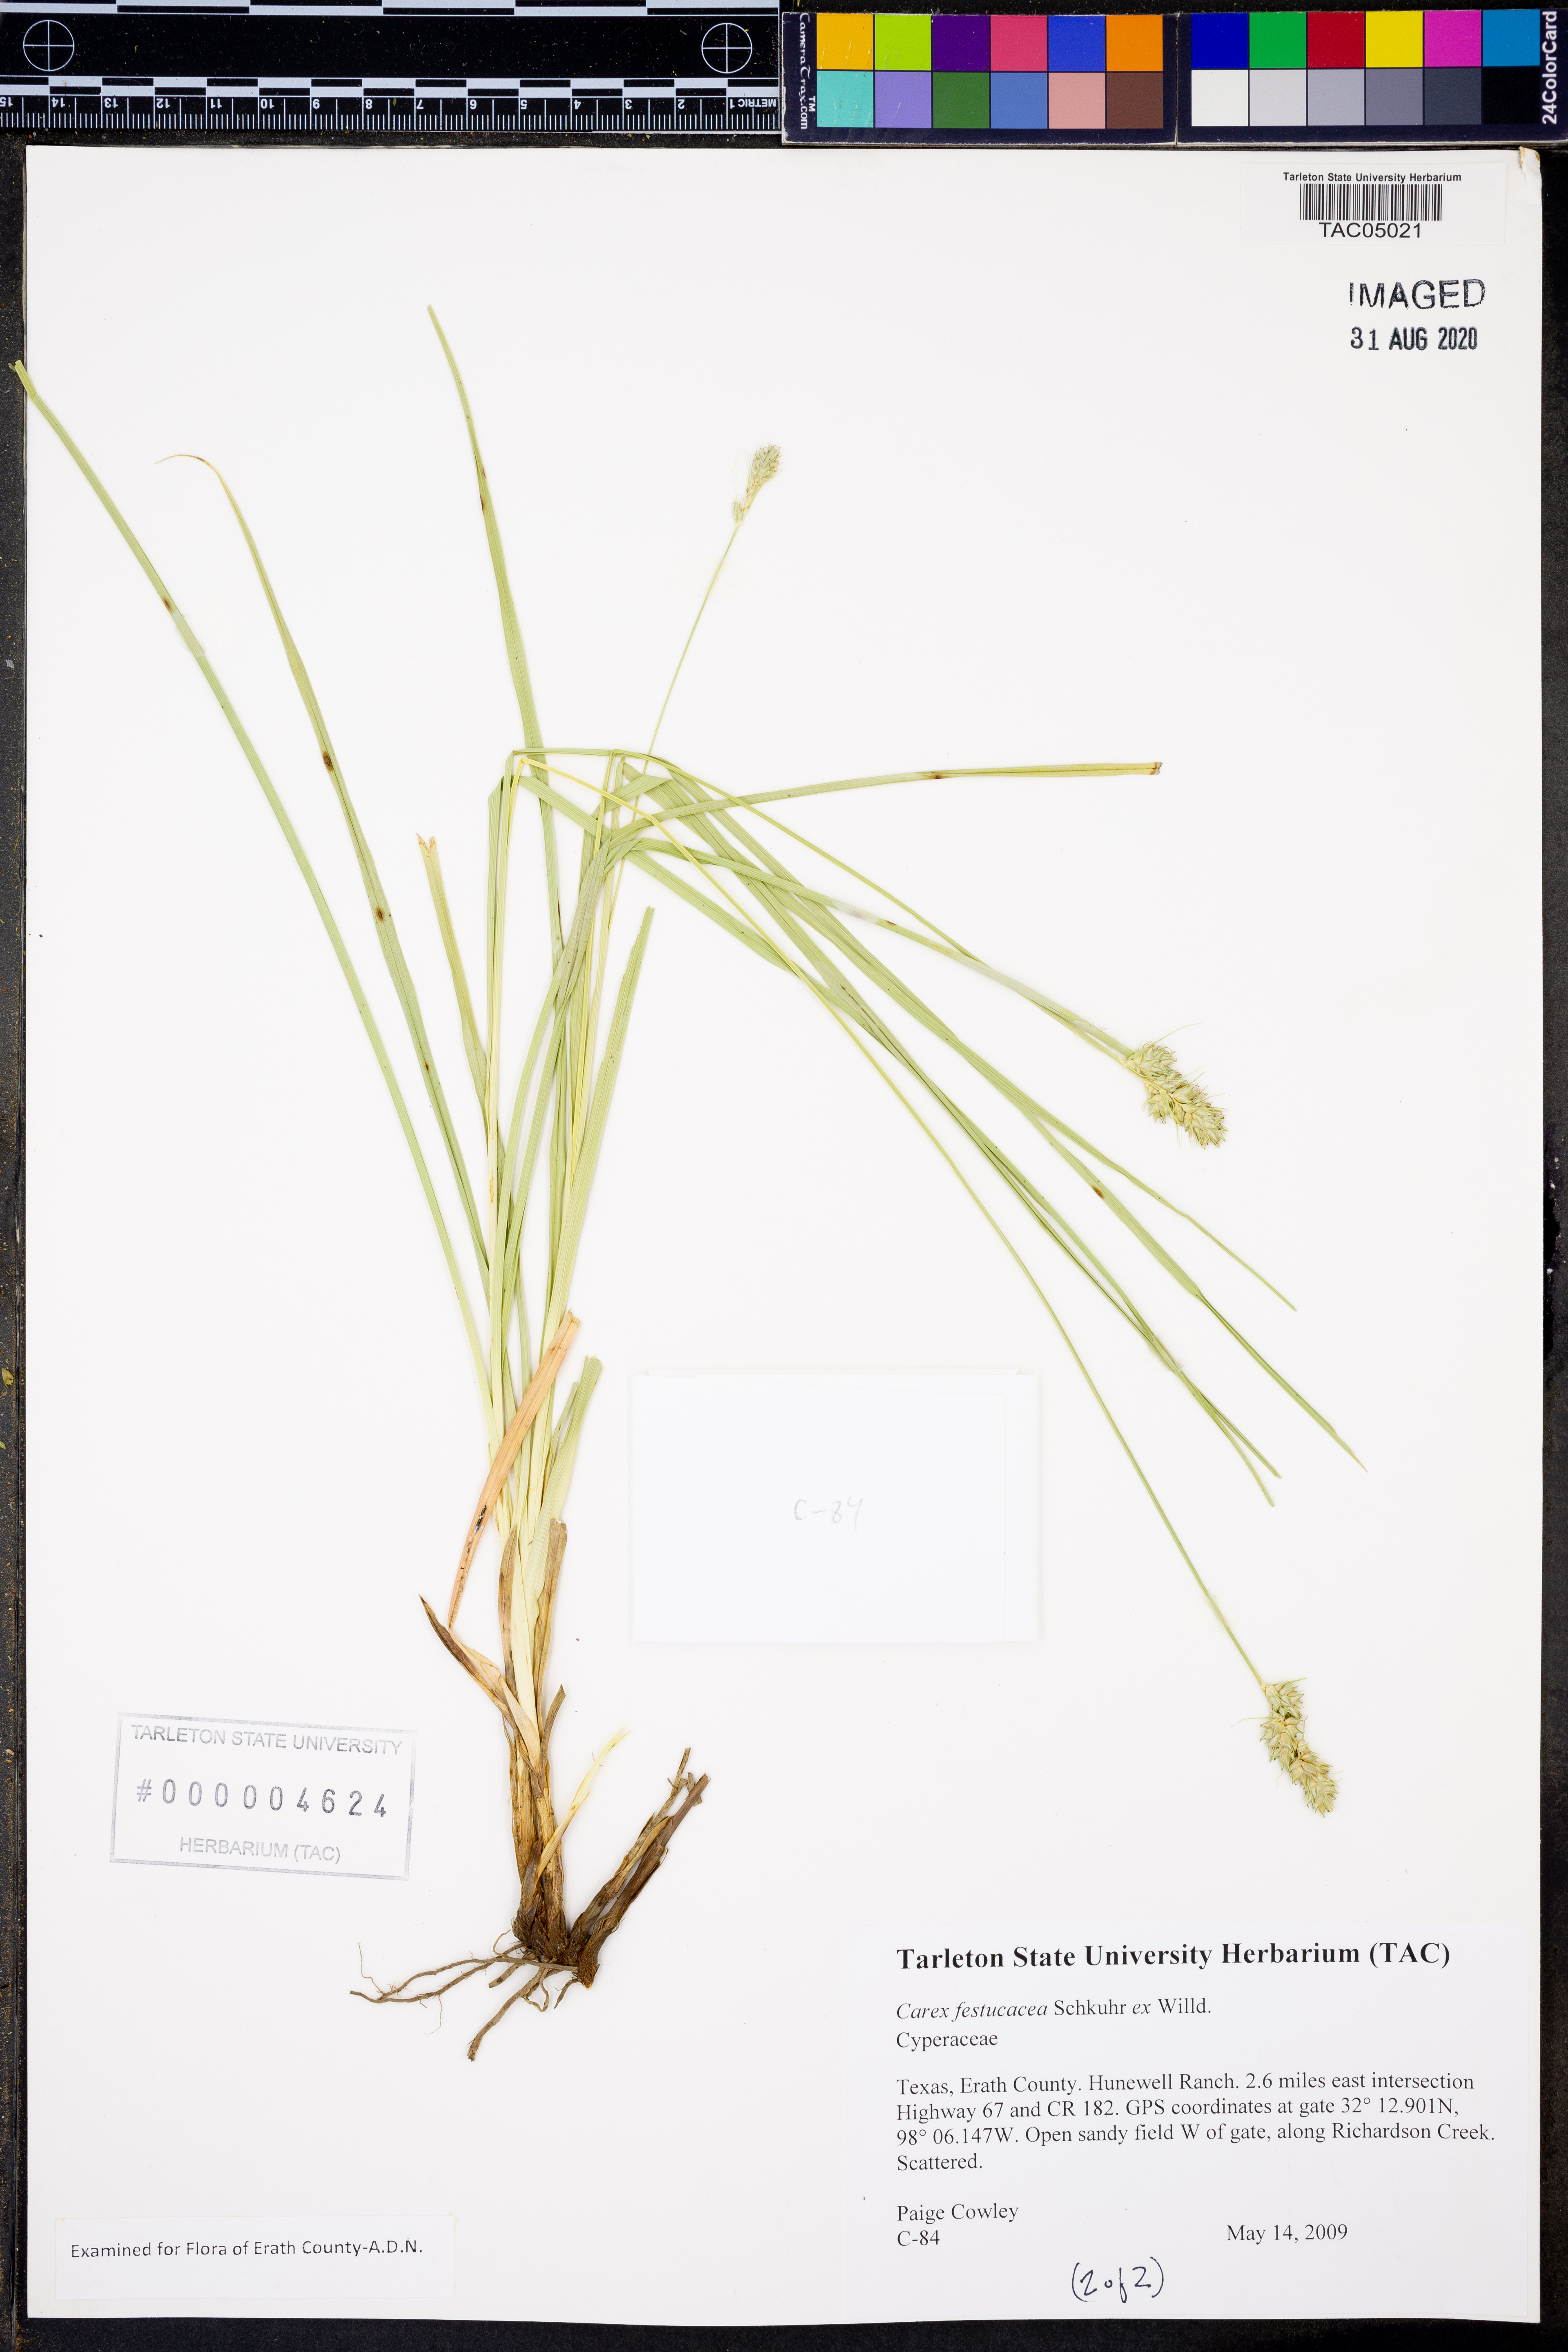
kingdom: Plantae
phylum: Tracheophyta
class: Liliopsida
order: Poales
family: Cyperaceae
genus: Carex
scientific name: Carex festucacea
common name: Fescue oval sedge
